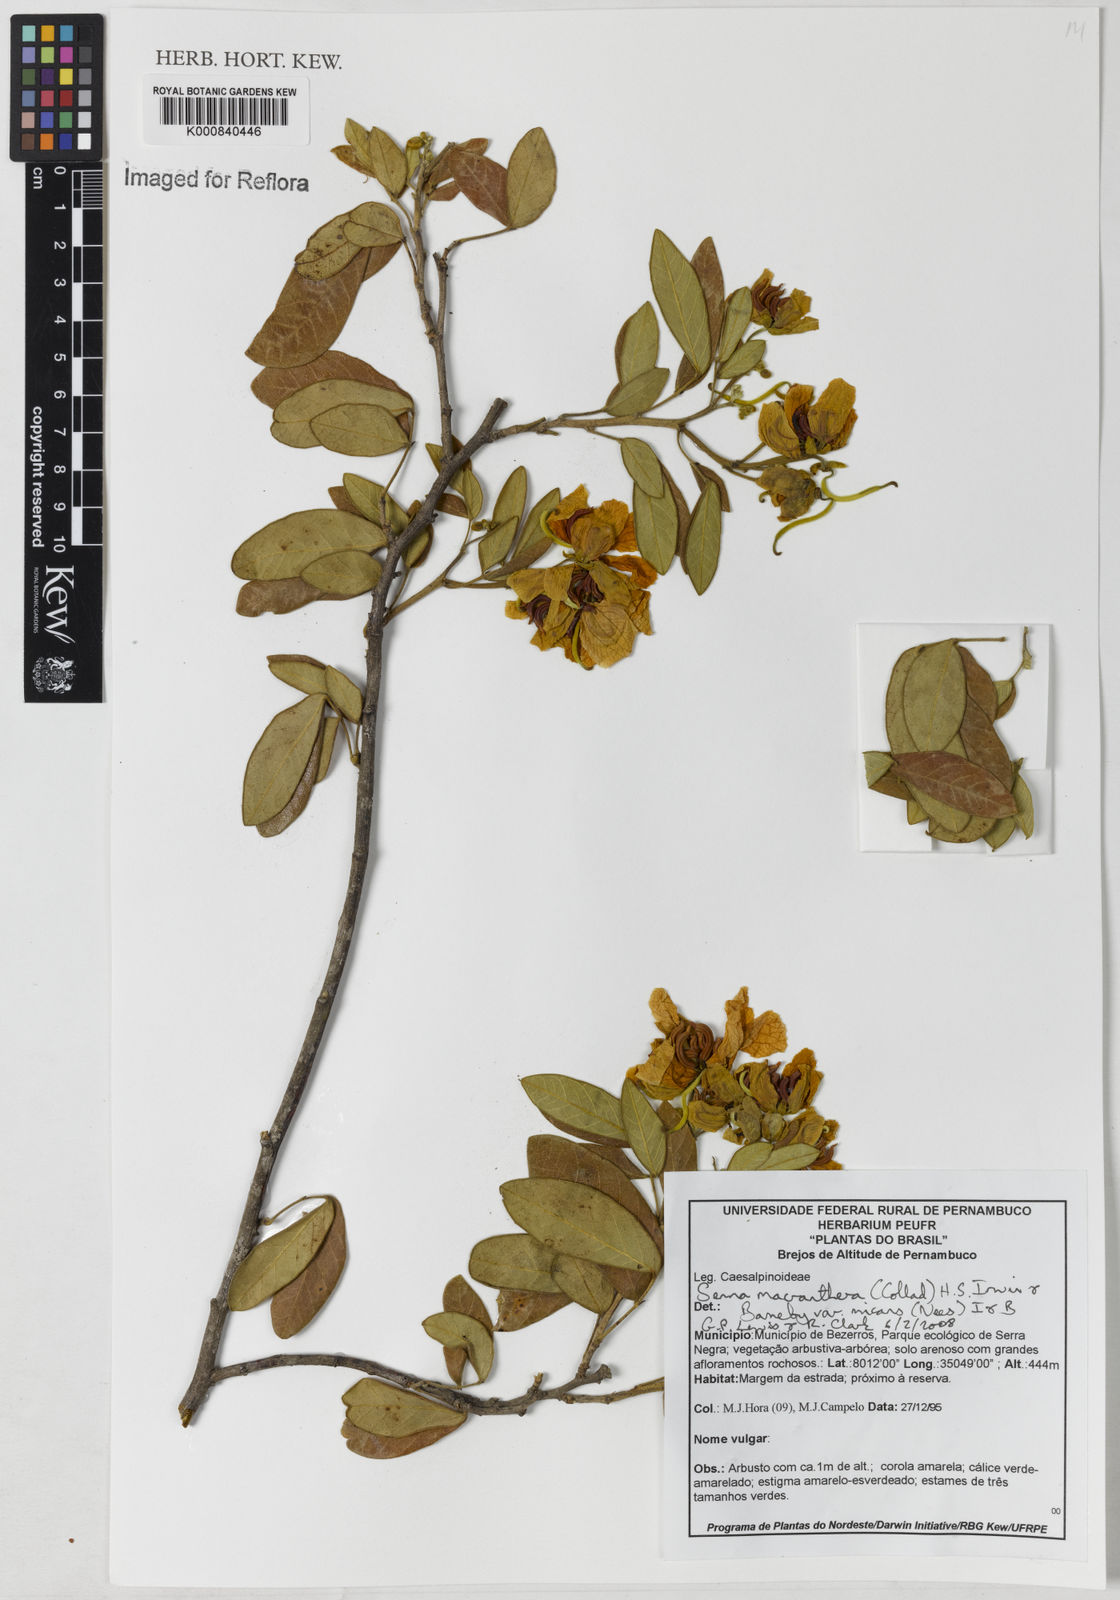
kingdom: Plantae
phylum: Tracheophyta
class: Magnoliopsida
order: Fabales
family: Fabaceae
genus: Senna
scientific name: Senna macranthera
